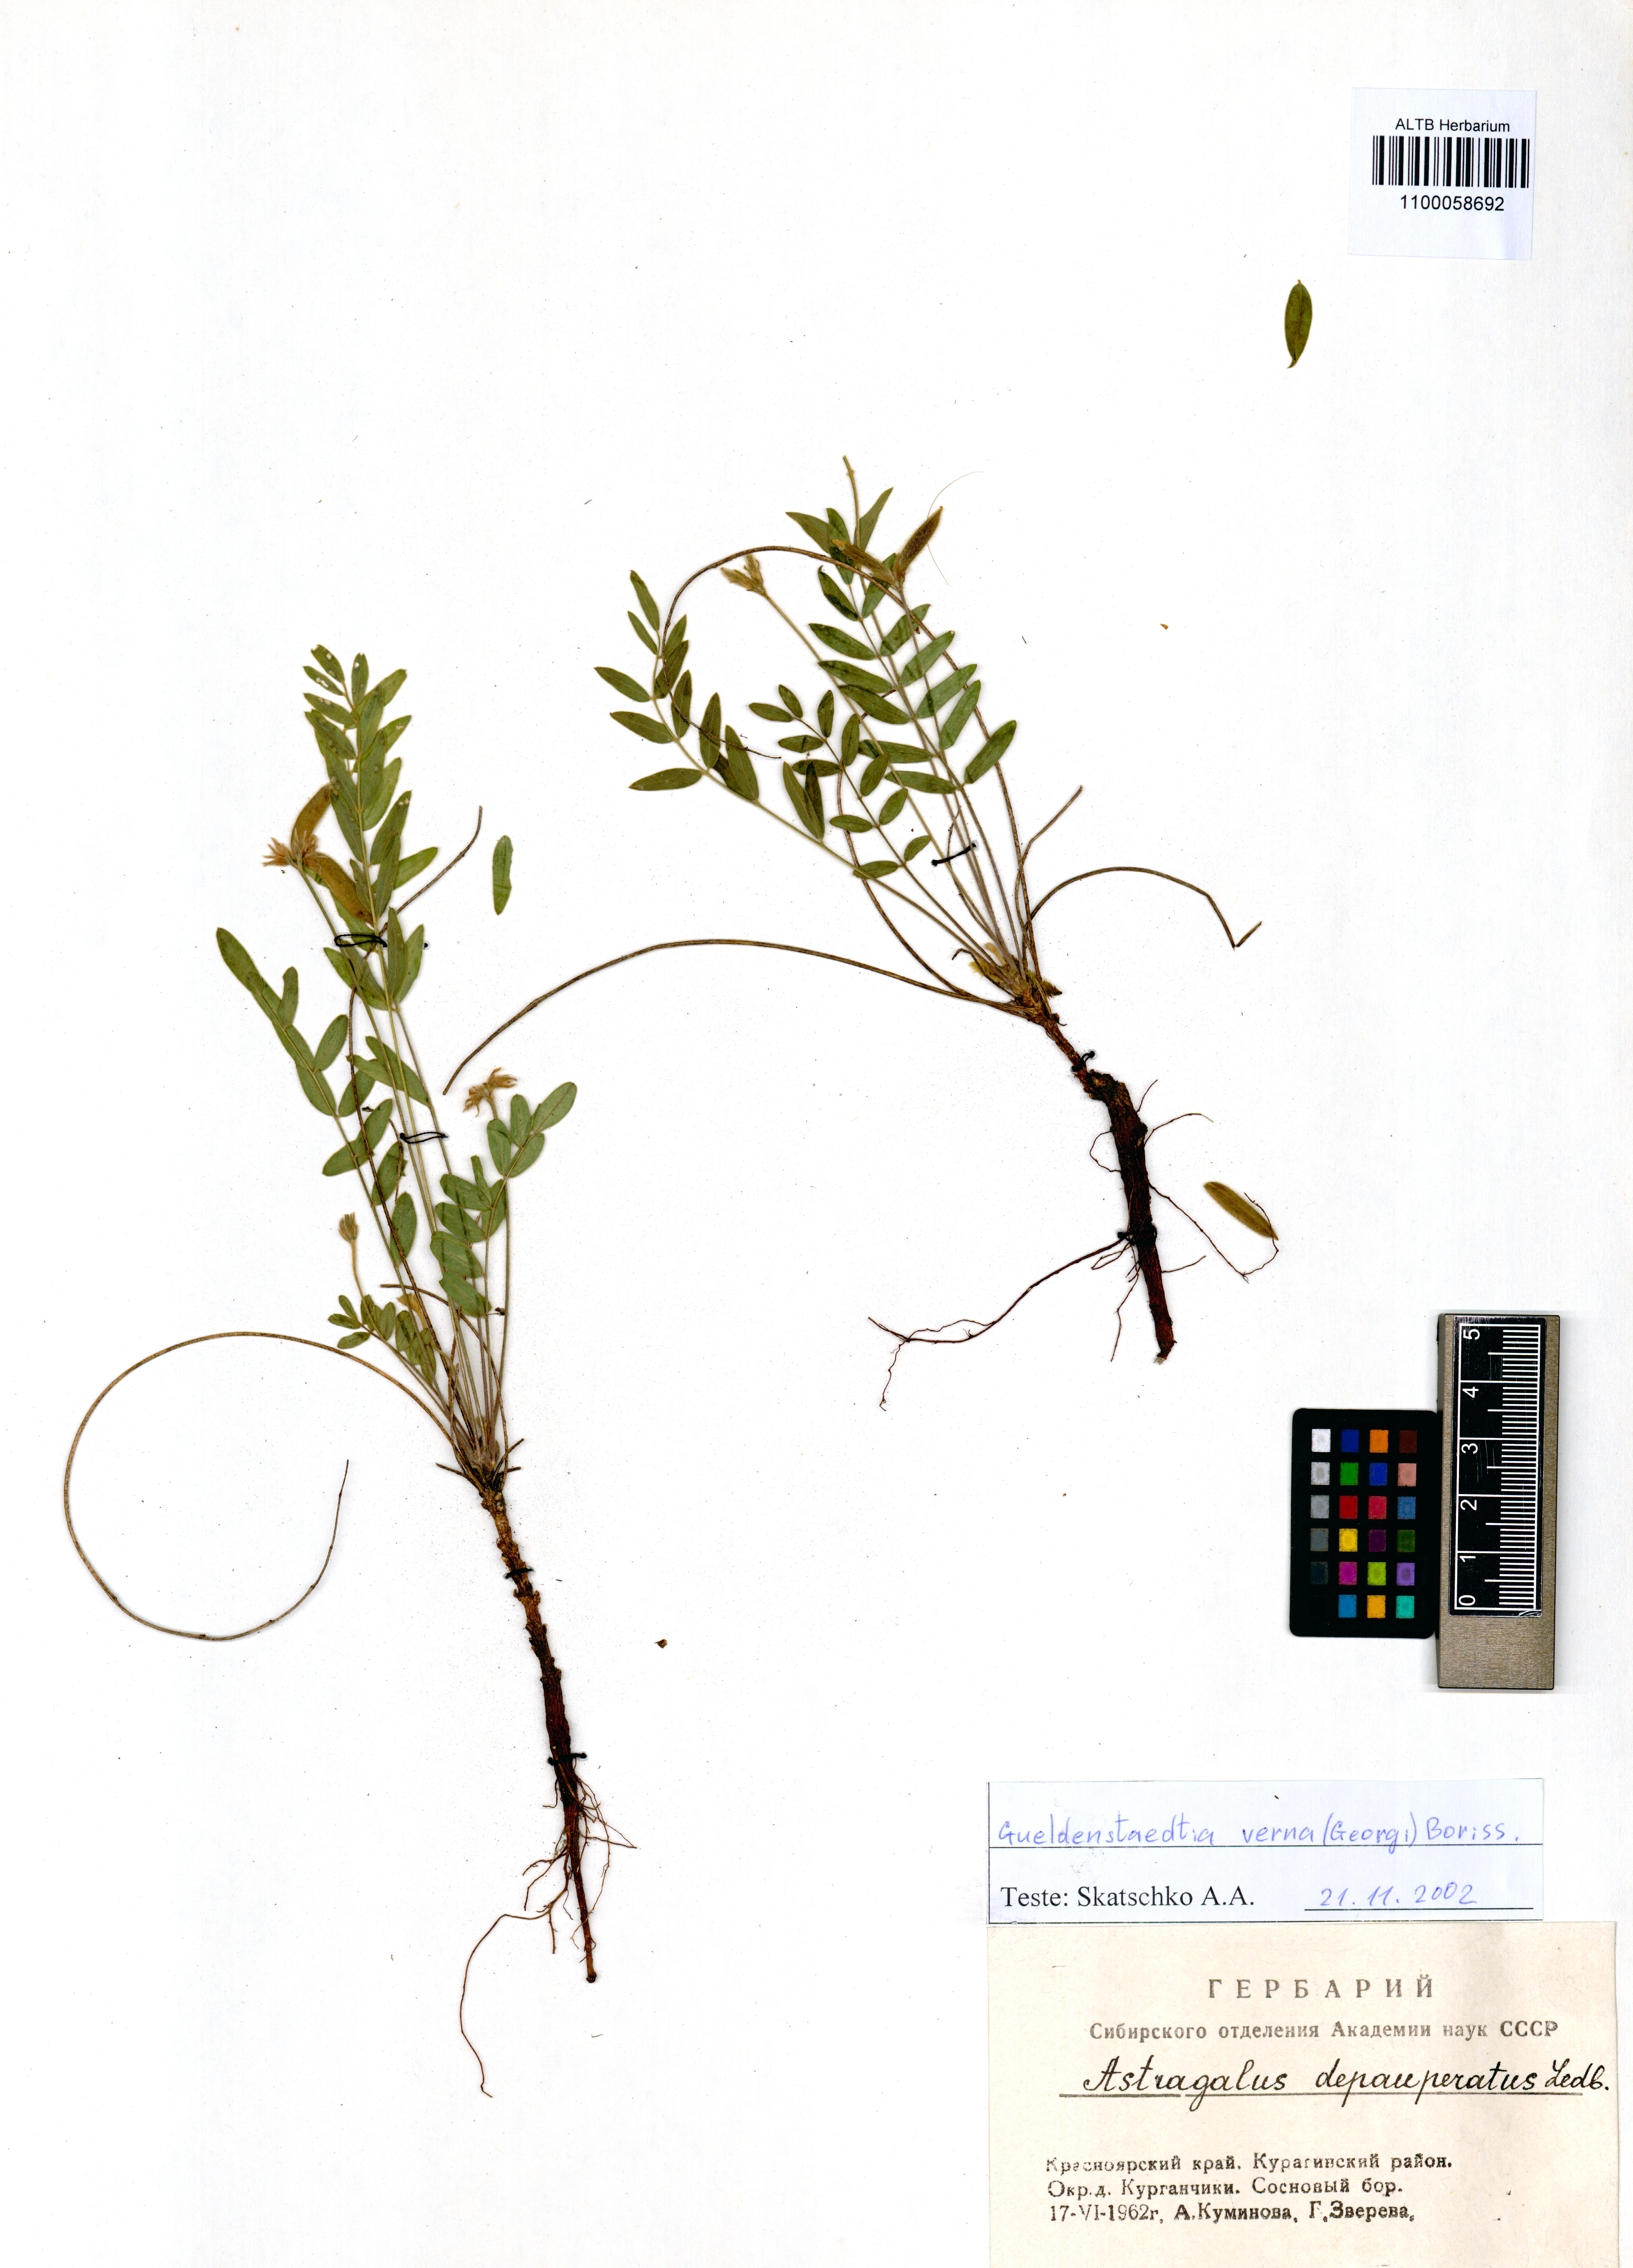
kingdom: Plantae
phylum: Tracheophyta
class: Magnoliopsida
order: Malvales
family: Thymelaeaceae
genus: Daphne
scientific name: Daphne altaica
